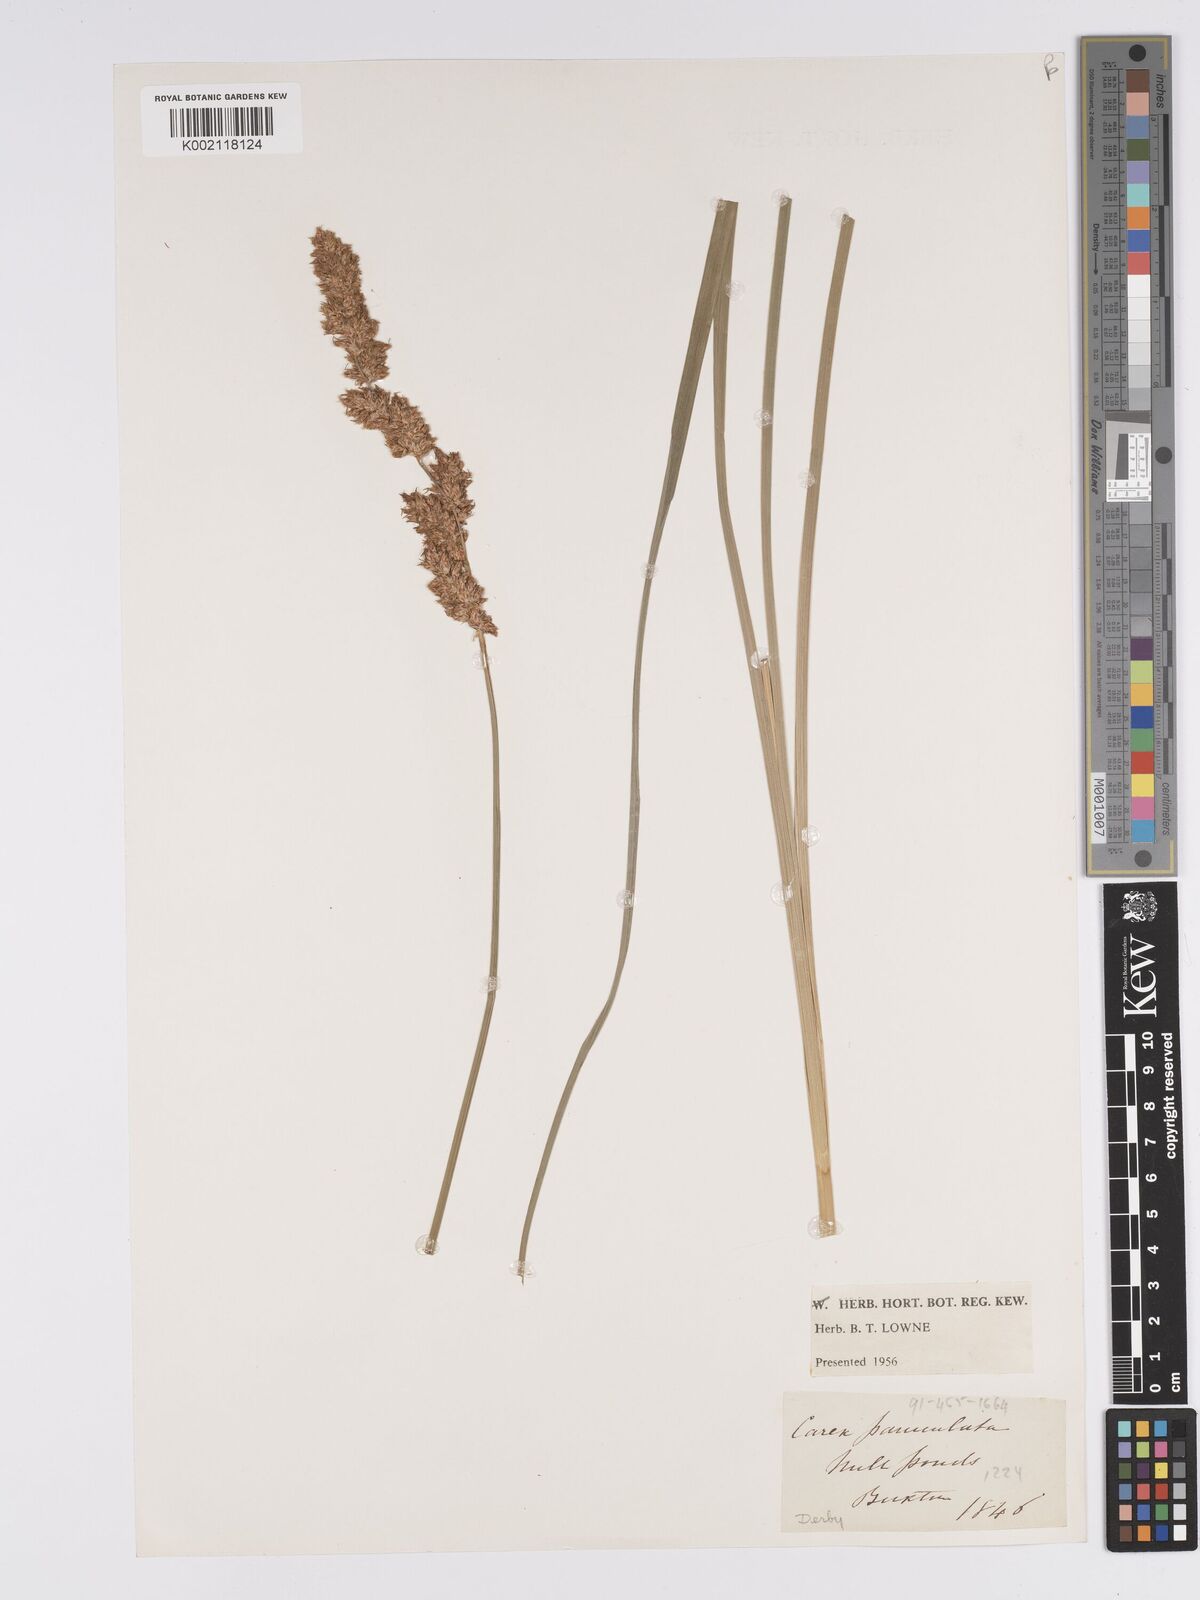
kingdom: Plantae
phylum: Tracheophyta
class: Liliopsida
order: Poales
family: Cyperaceae
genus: Carex
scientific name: Carex paniculata
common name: Greater tussock-sedge
